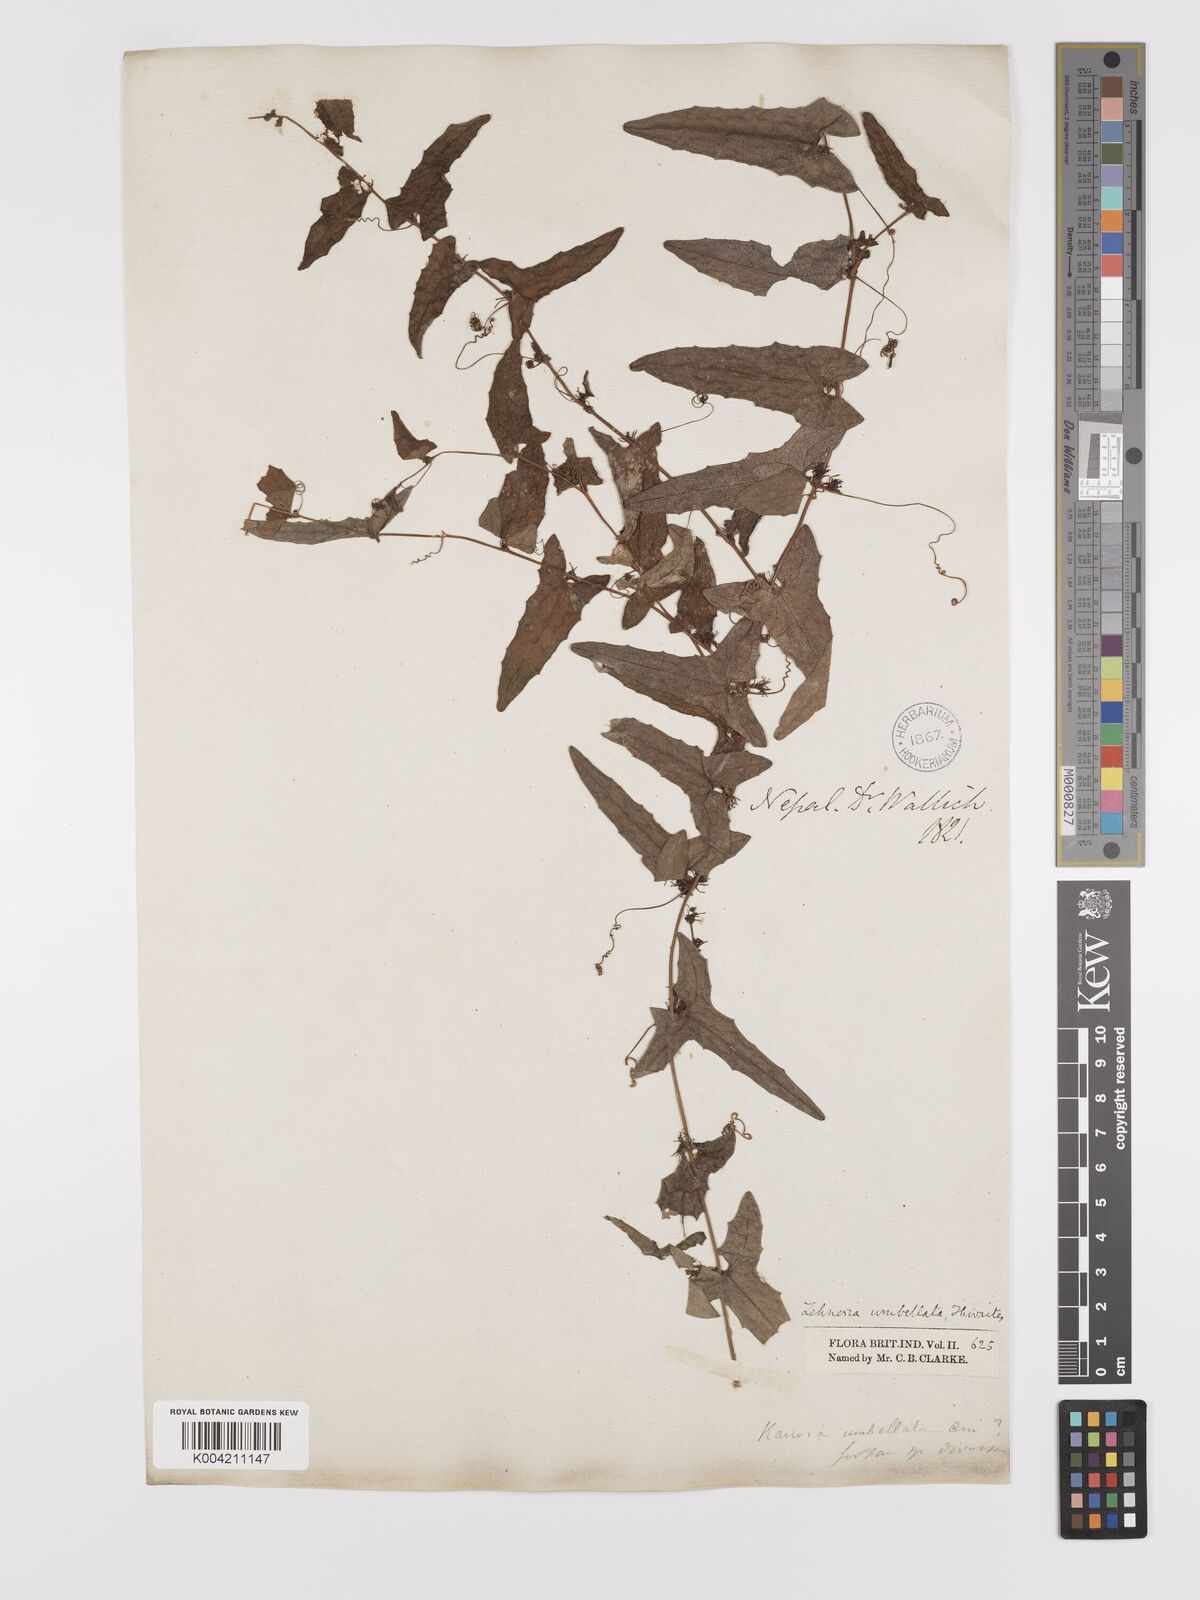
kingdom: Plantae
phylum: Tracheophyta
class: Magnoliopsida
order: Cucurbitales
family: Cucurbitaceae
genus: Solena
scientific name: Solena
